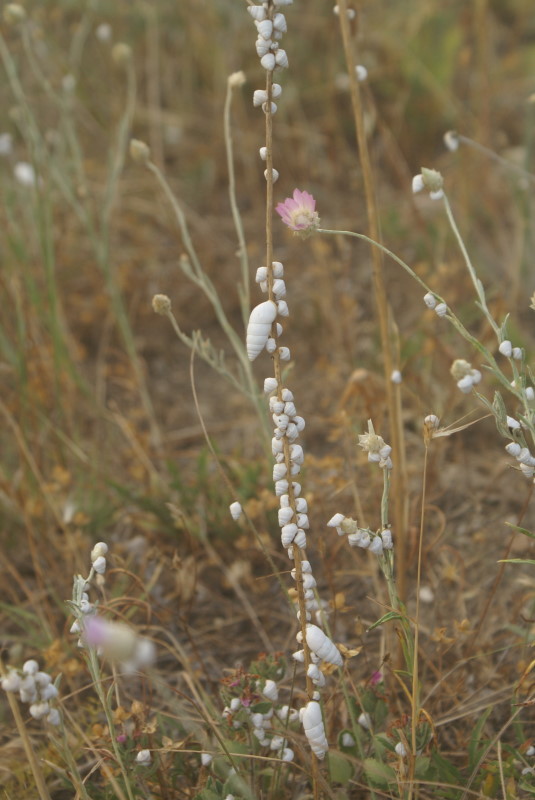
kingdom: Plantae
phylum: Tracheophyta
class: Magnoliopsida
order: Asterales
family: Asteraceae
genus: Xeranthemum
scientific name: Xeranthemum annuum
